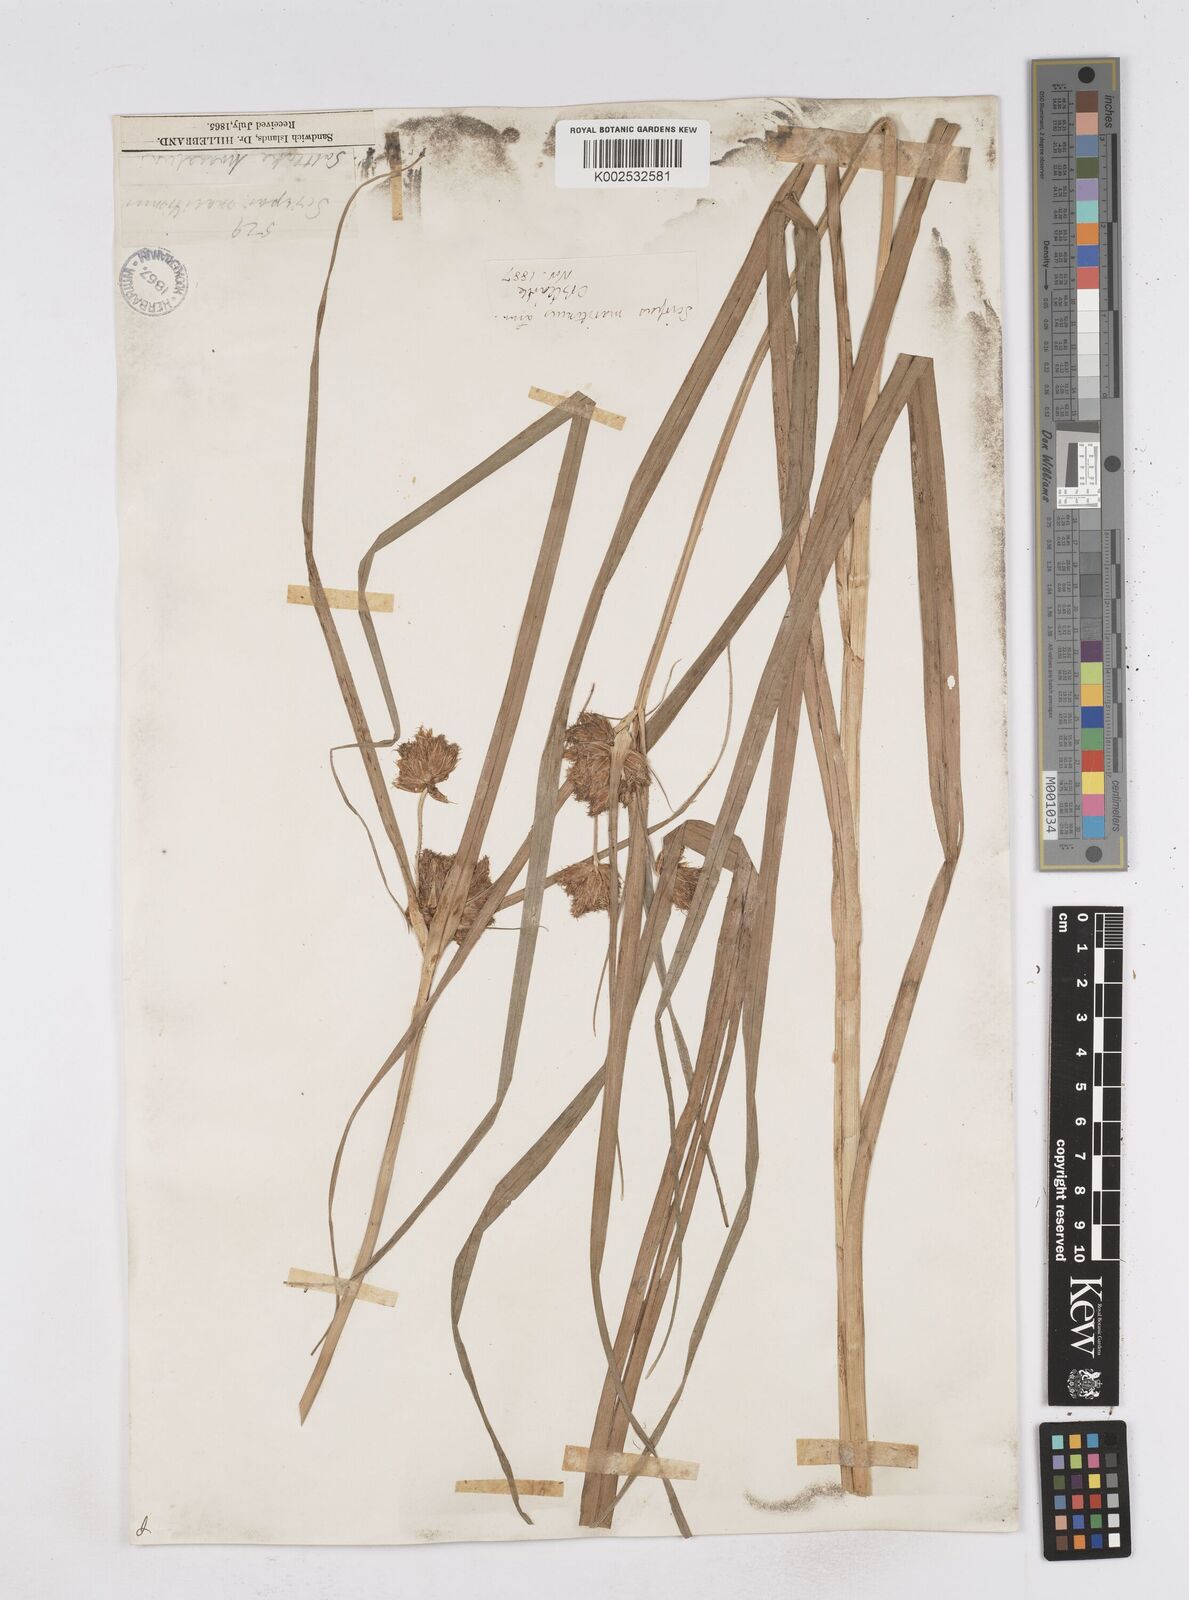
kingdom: Plantae
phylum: Tracheophyta
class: Liliopsida
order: Poales
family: Cyperaceae
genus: Bolboschoenus
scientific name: Bolboschoenus maritimus
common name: Sea club-rush
